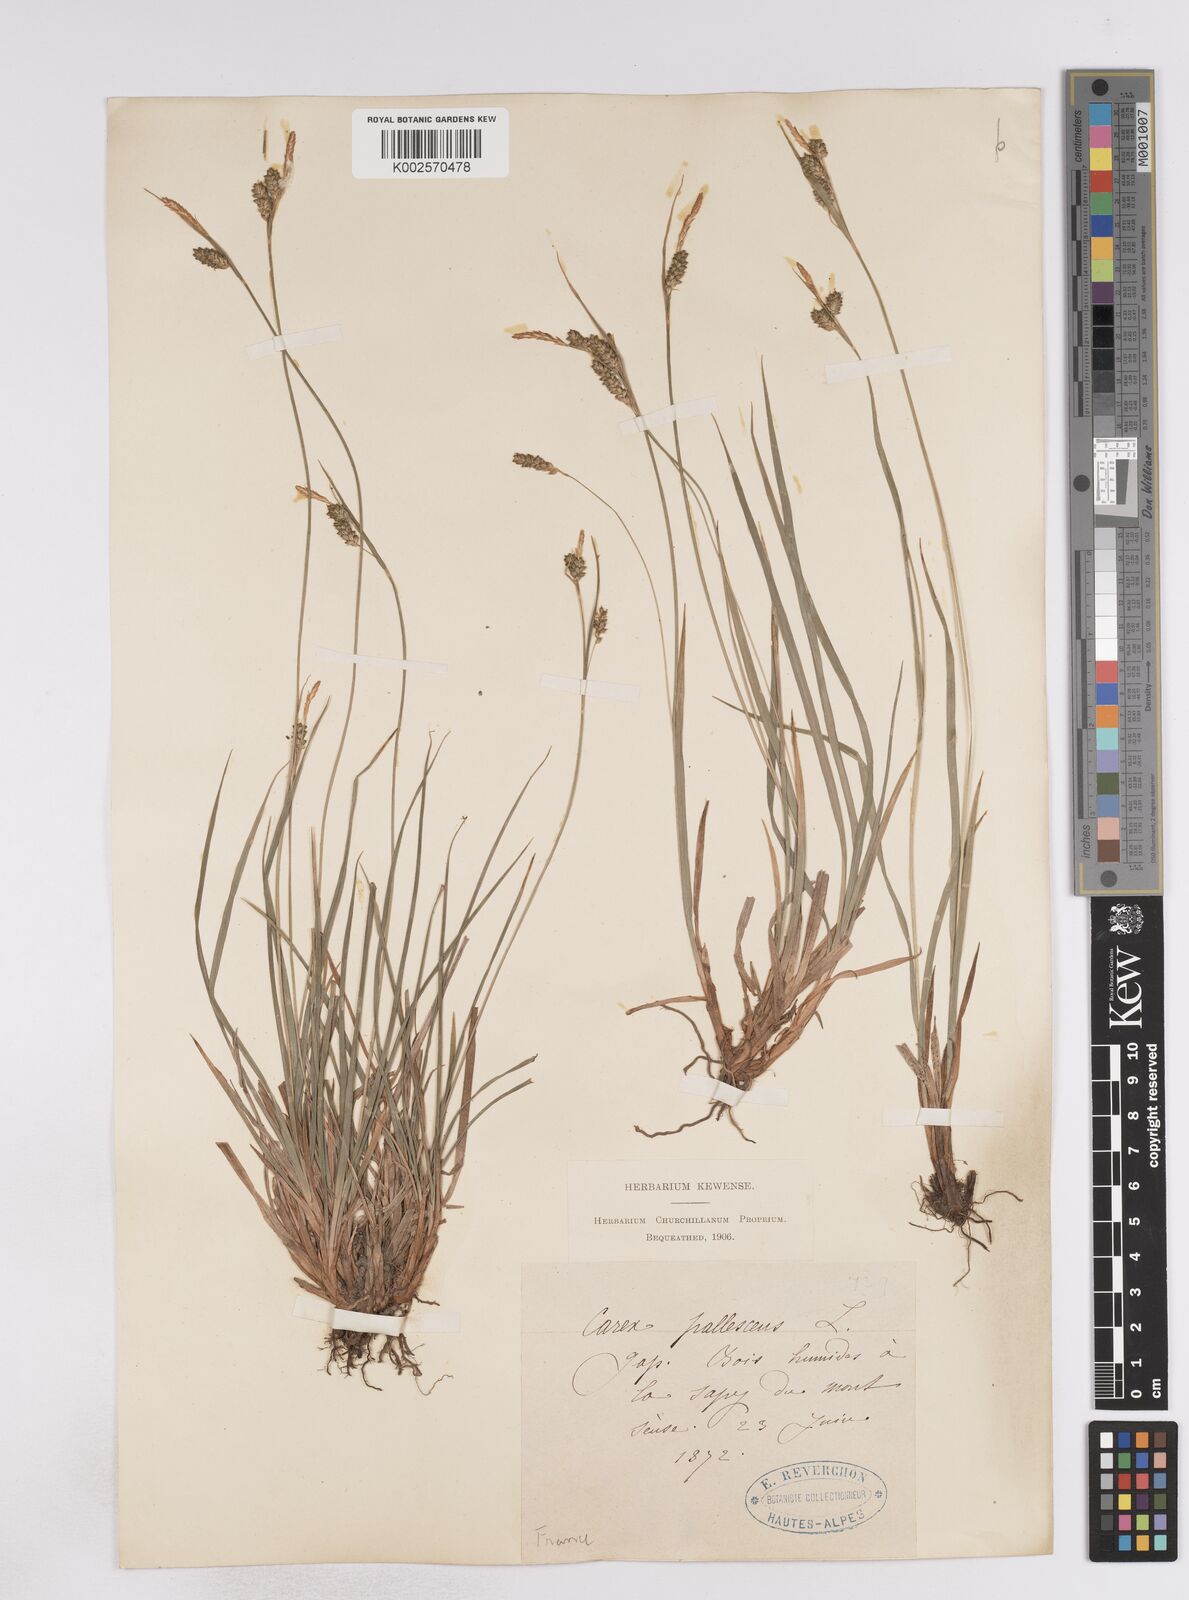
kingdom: Plantae
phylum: Tracheophyta
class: Liliopsida
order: Poales
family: Cyperaceae
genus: Carex
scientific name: Carex pallescens
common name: Pale sedge
